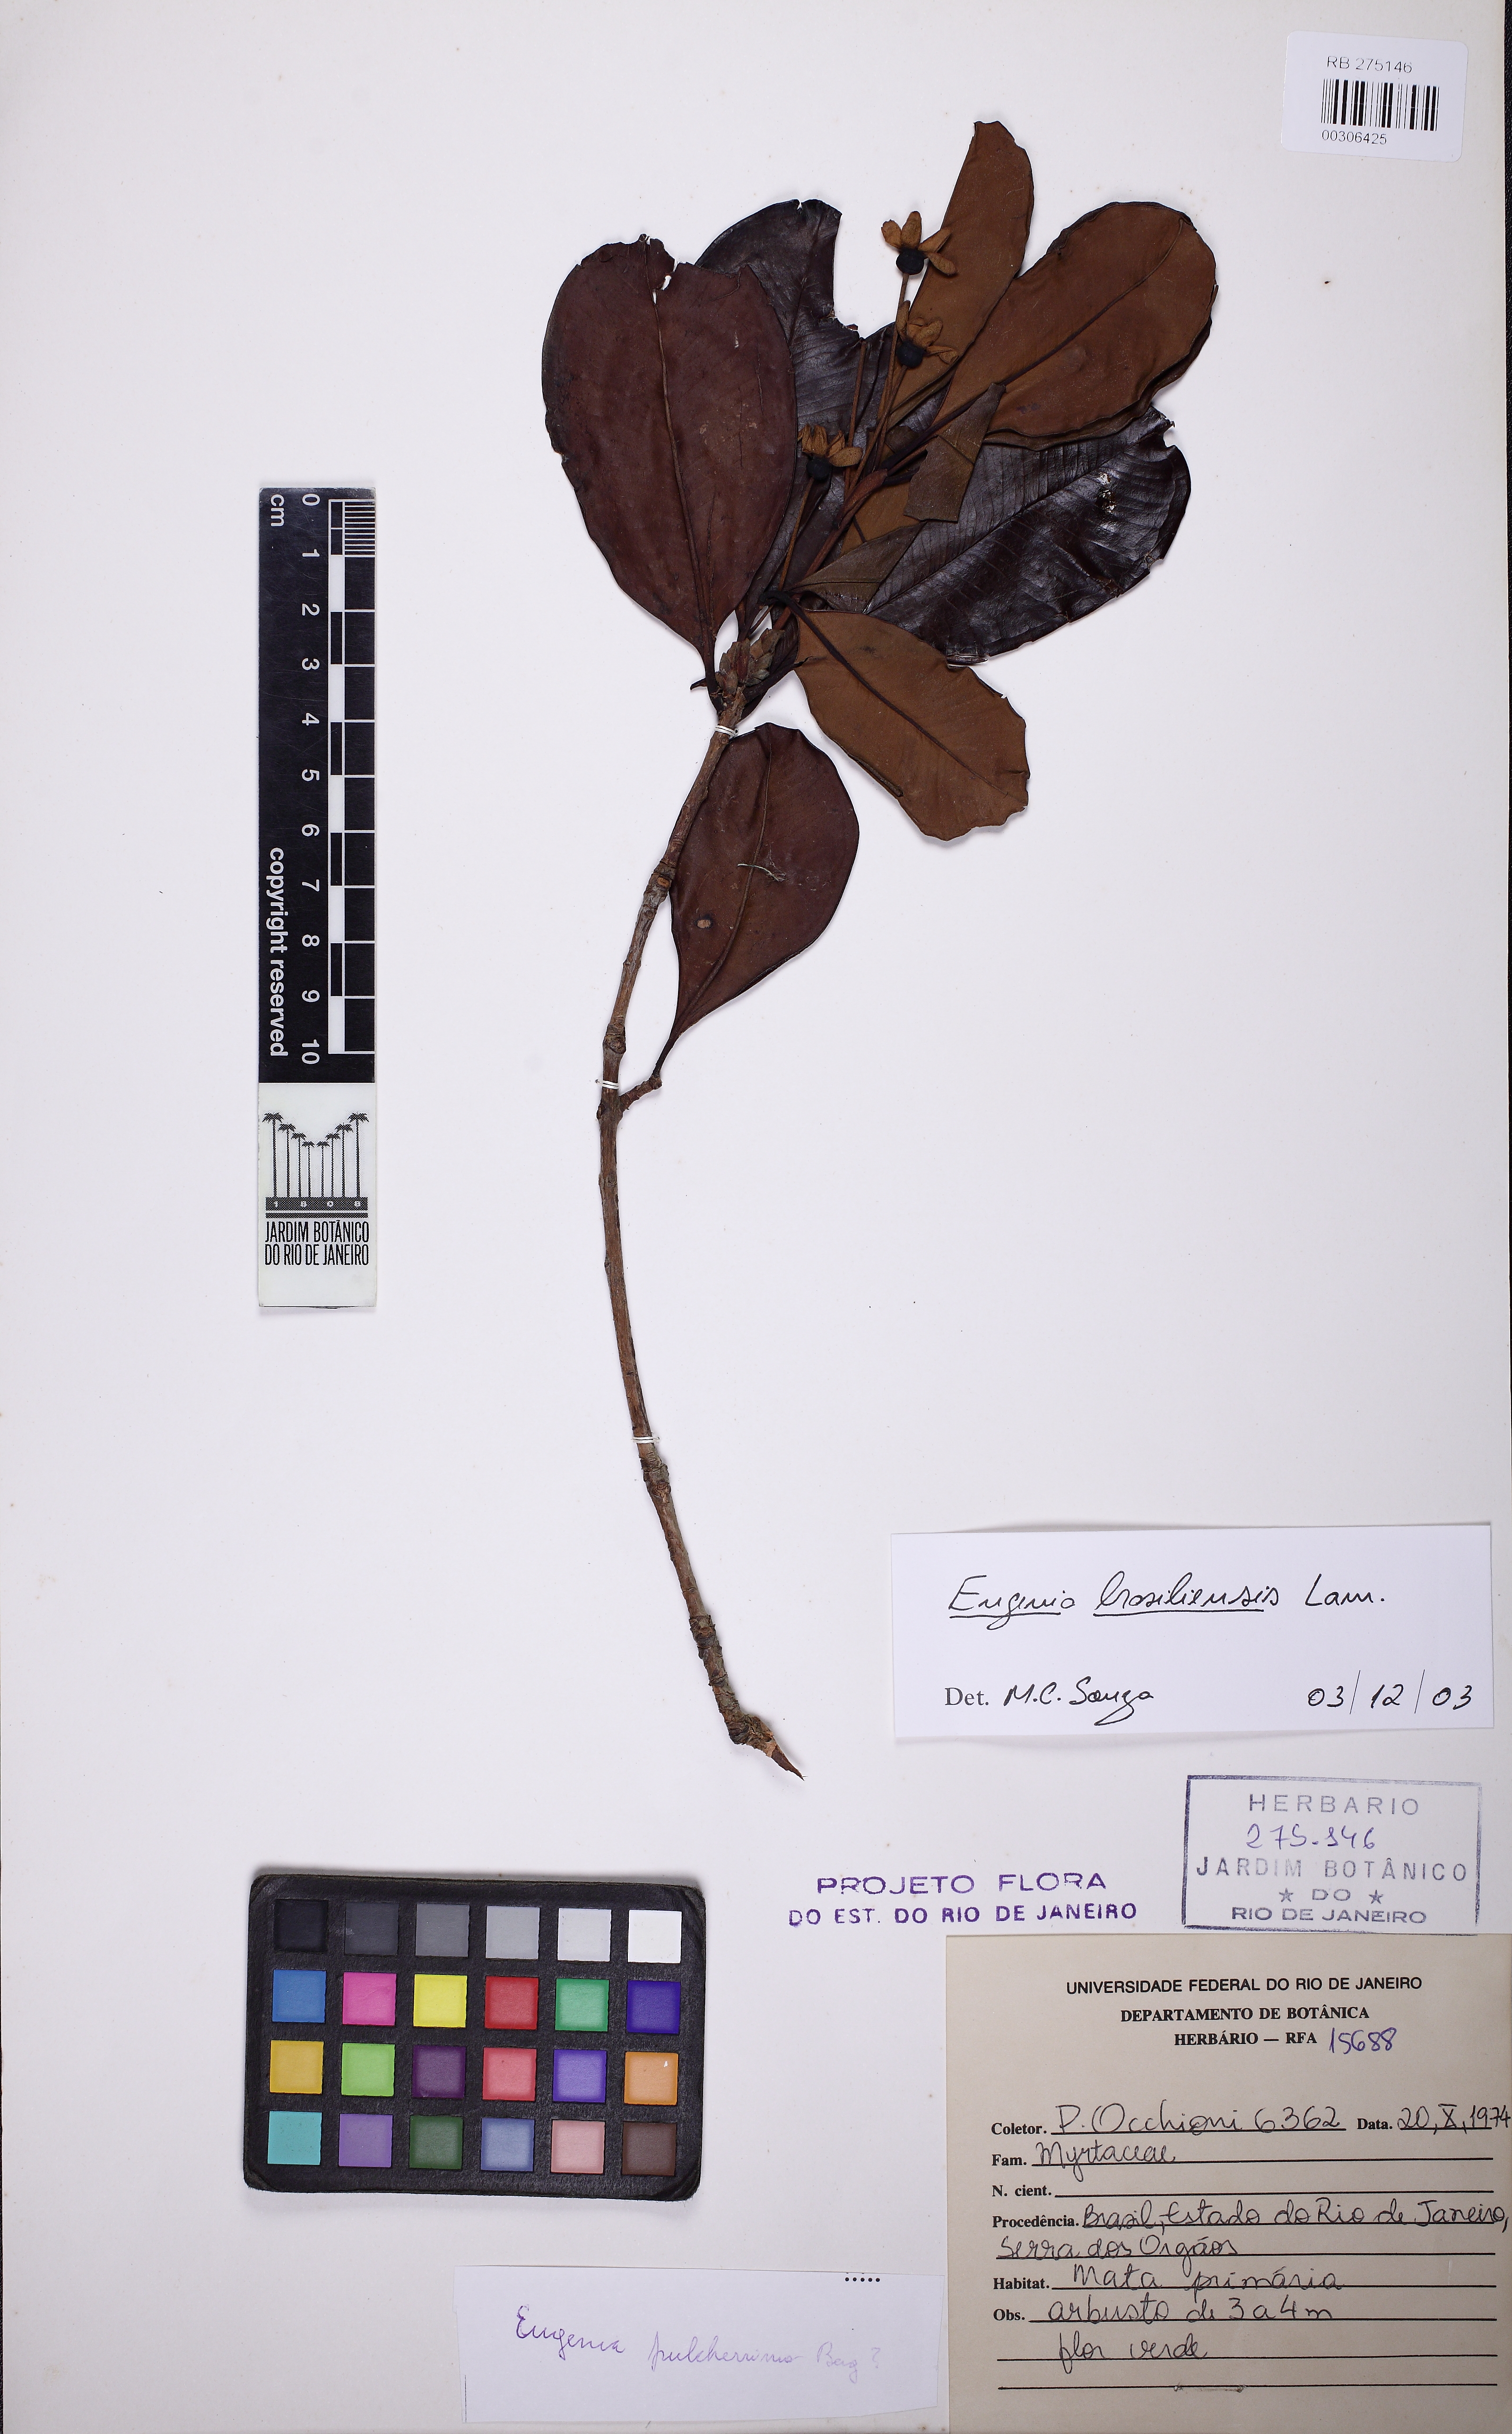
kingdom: Plantae
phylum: Tracheophyta
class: Magnoliopsida
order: Myrtales
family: Myrtaceae
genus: Eugenia
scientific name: Eugenia brasiliensis
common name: Grumichama
